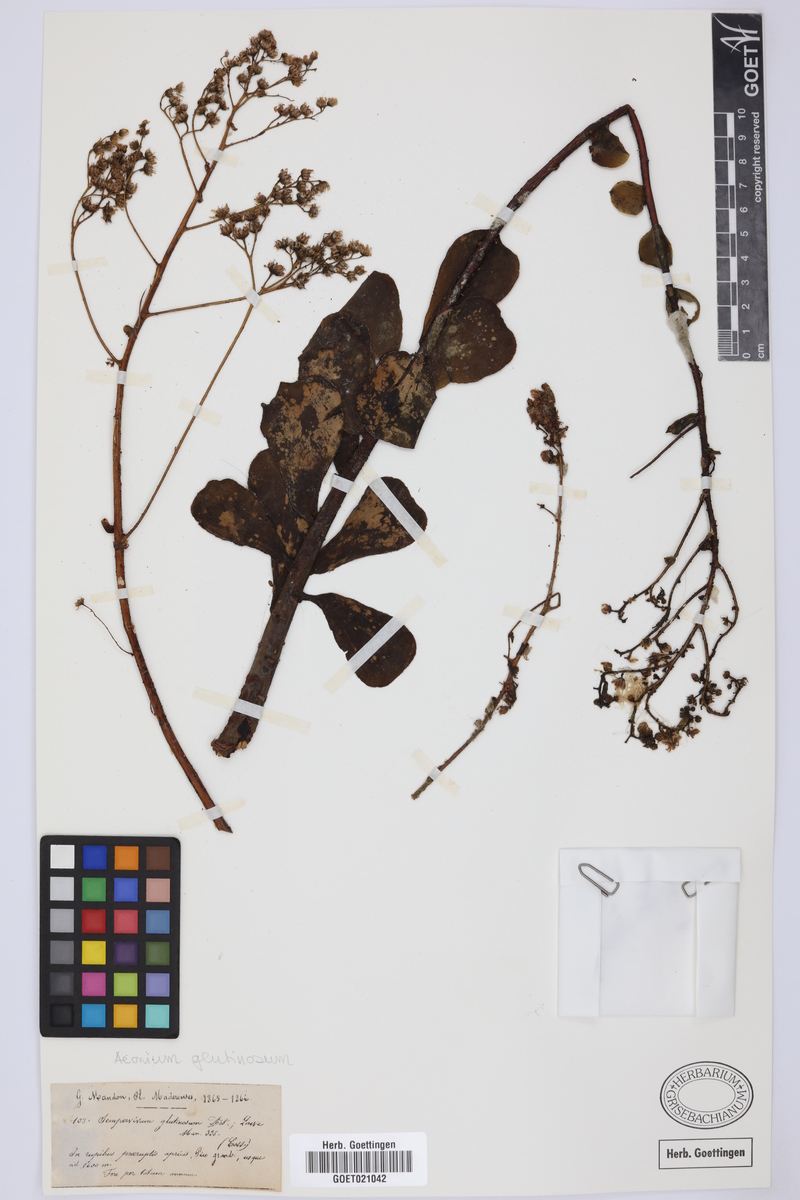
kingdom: Plantae
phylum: Tracheophyta
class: Magnoliopsida
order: Saxifragales
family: Crassulaceae
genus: Aeonium
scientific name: Aeonium glutinosum
